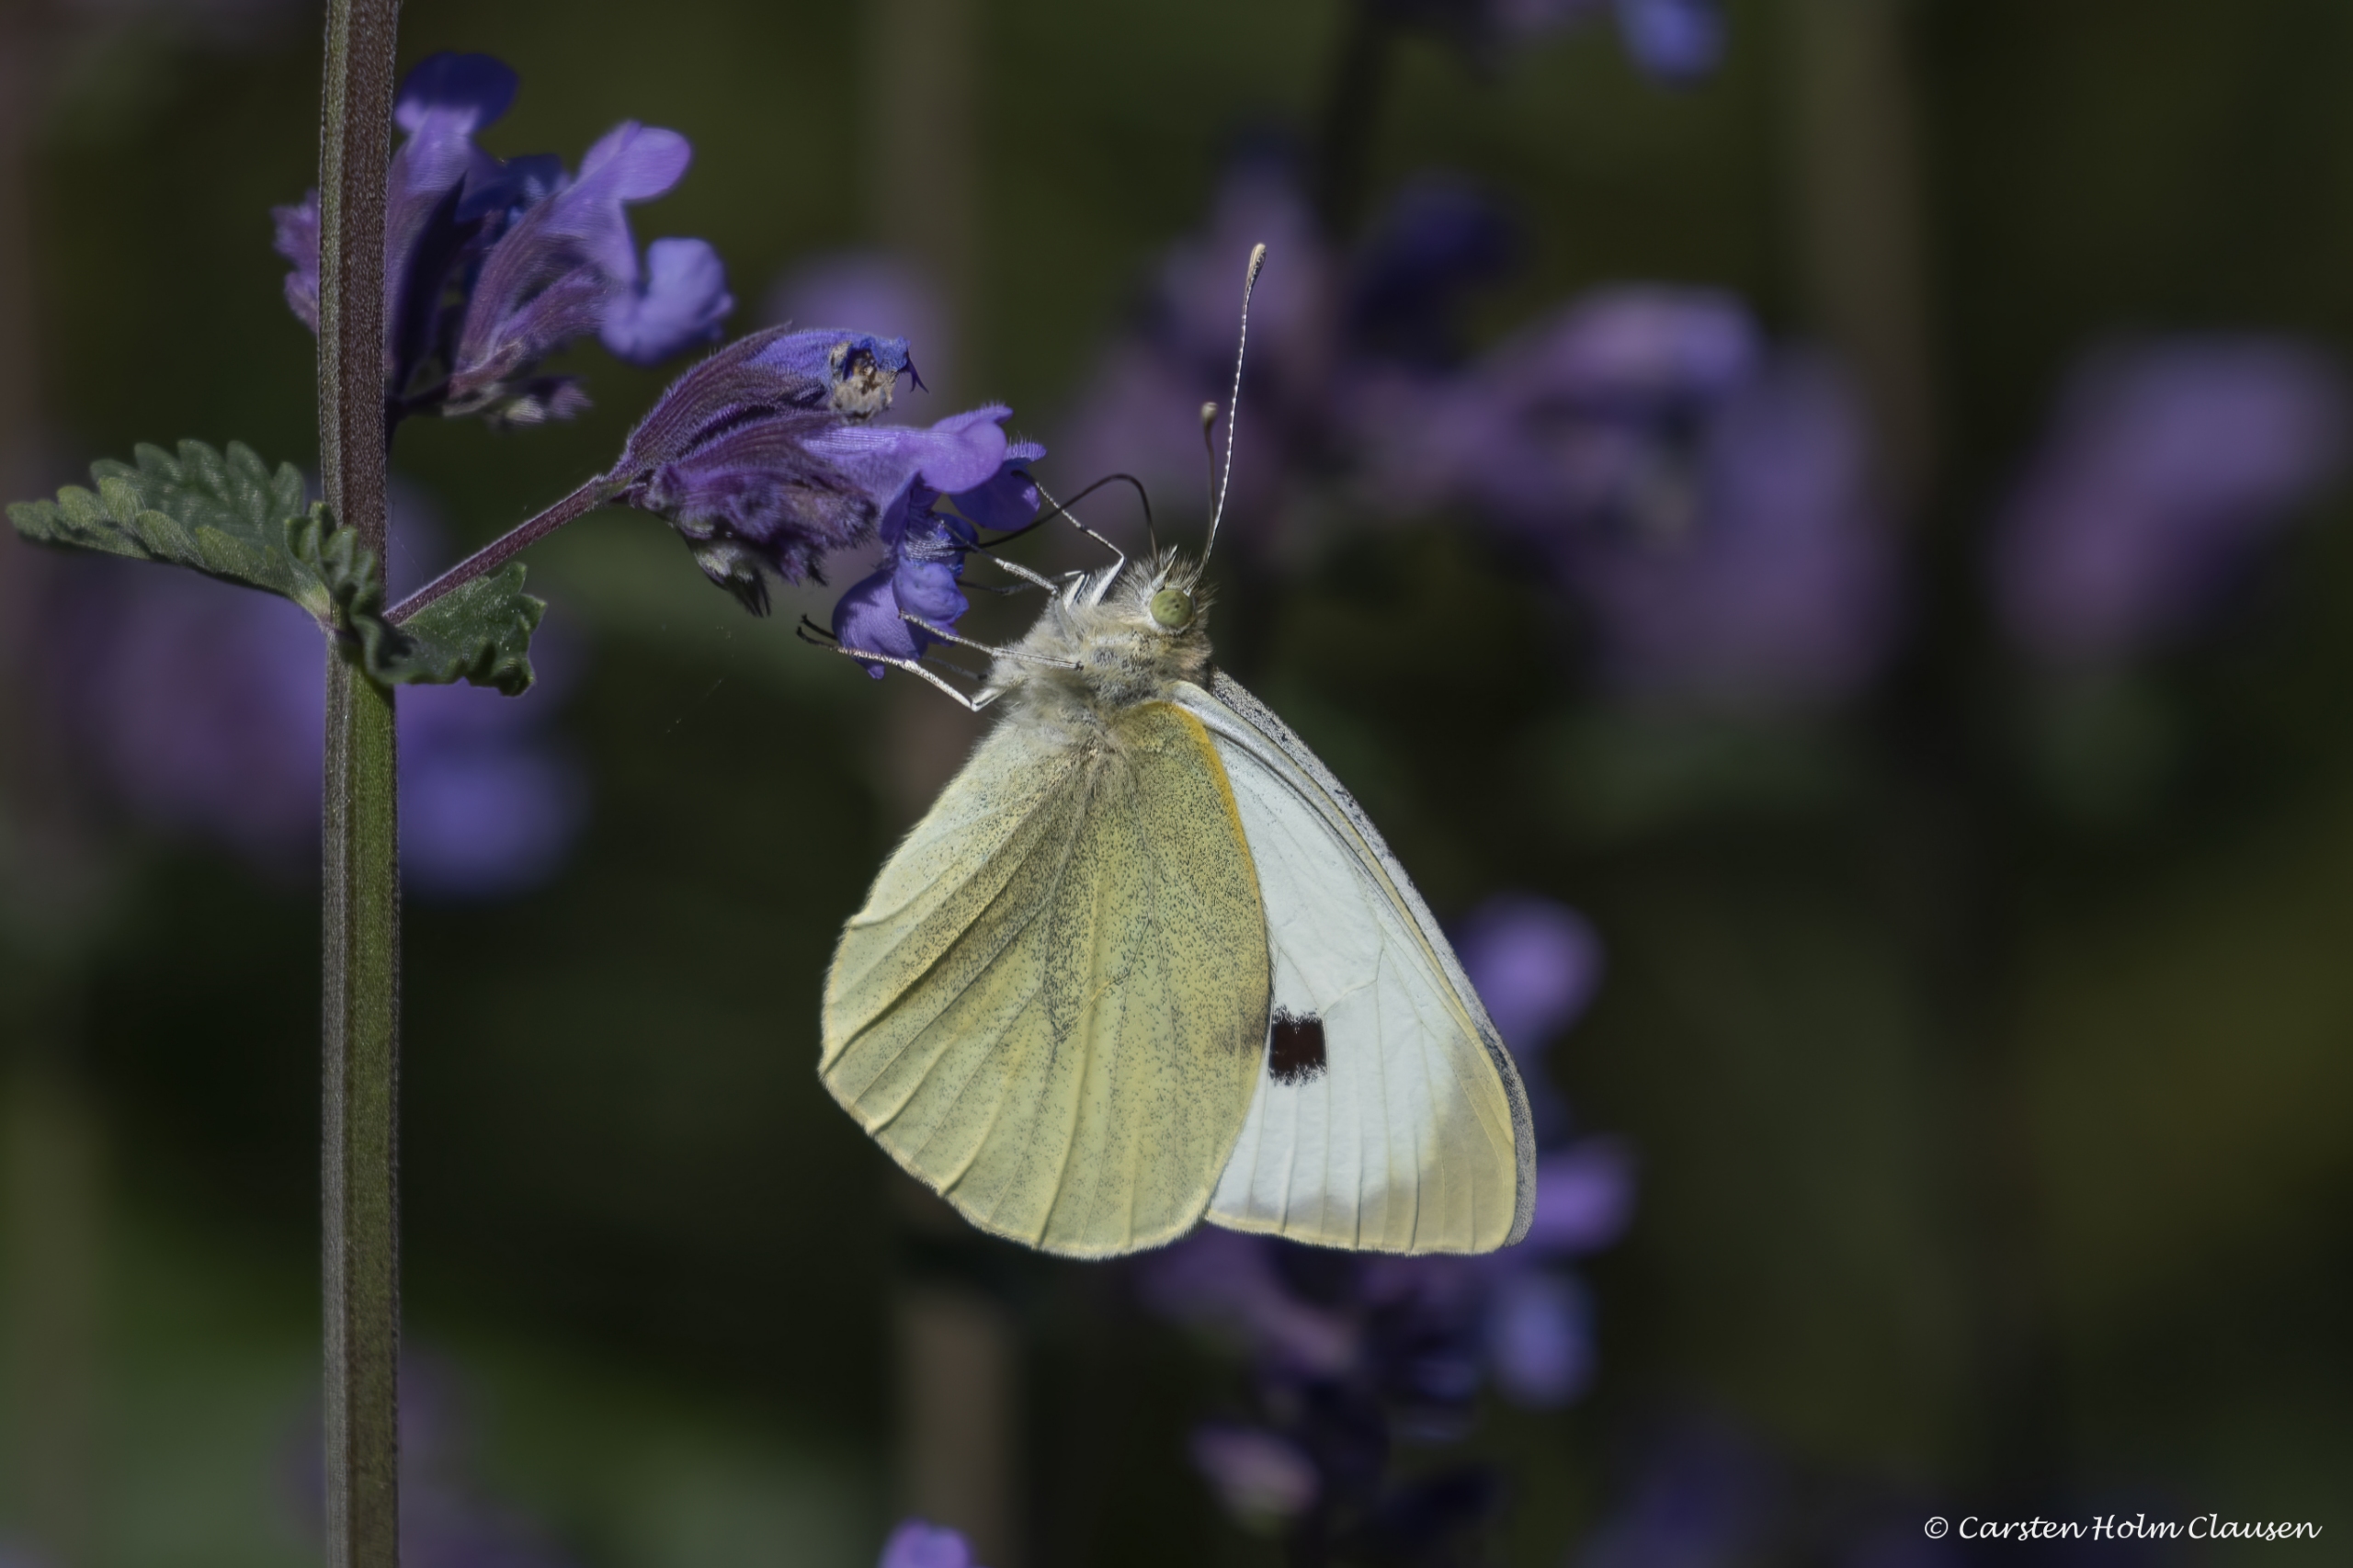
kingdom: Animalia
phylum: Arthropoda
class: Insecta
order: Lepidoptera
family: Pieridae
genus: Pieris
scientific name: Pieris brassicae
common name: Stor kålsommerfugl
